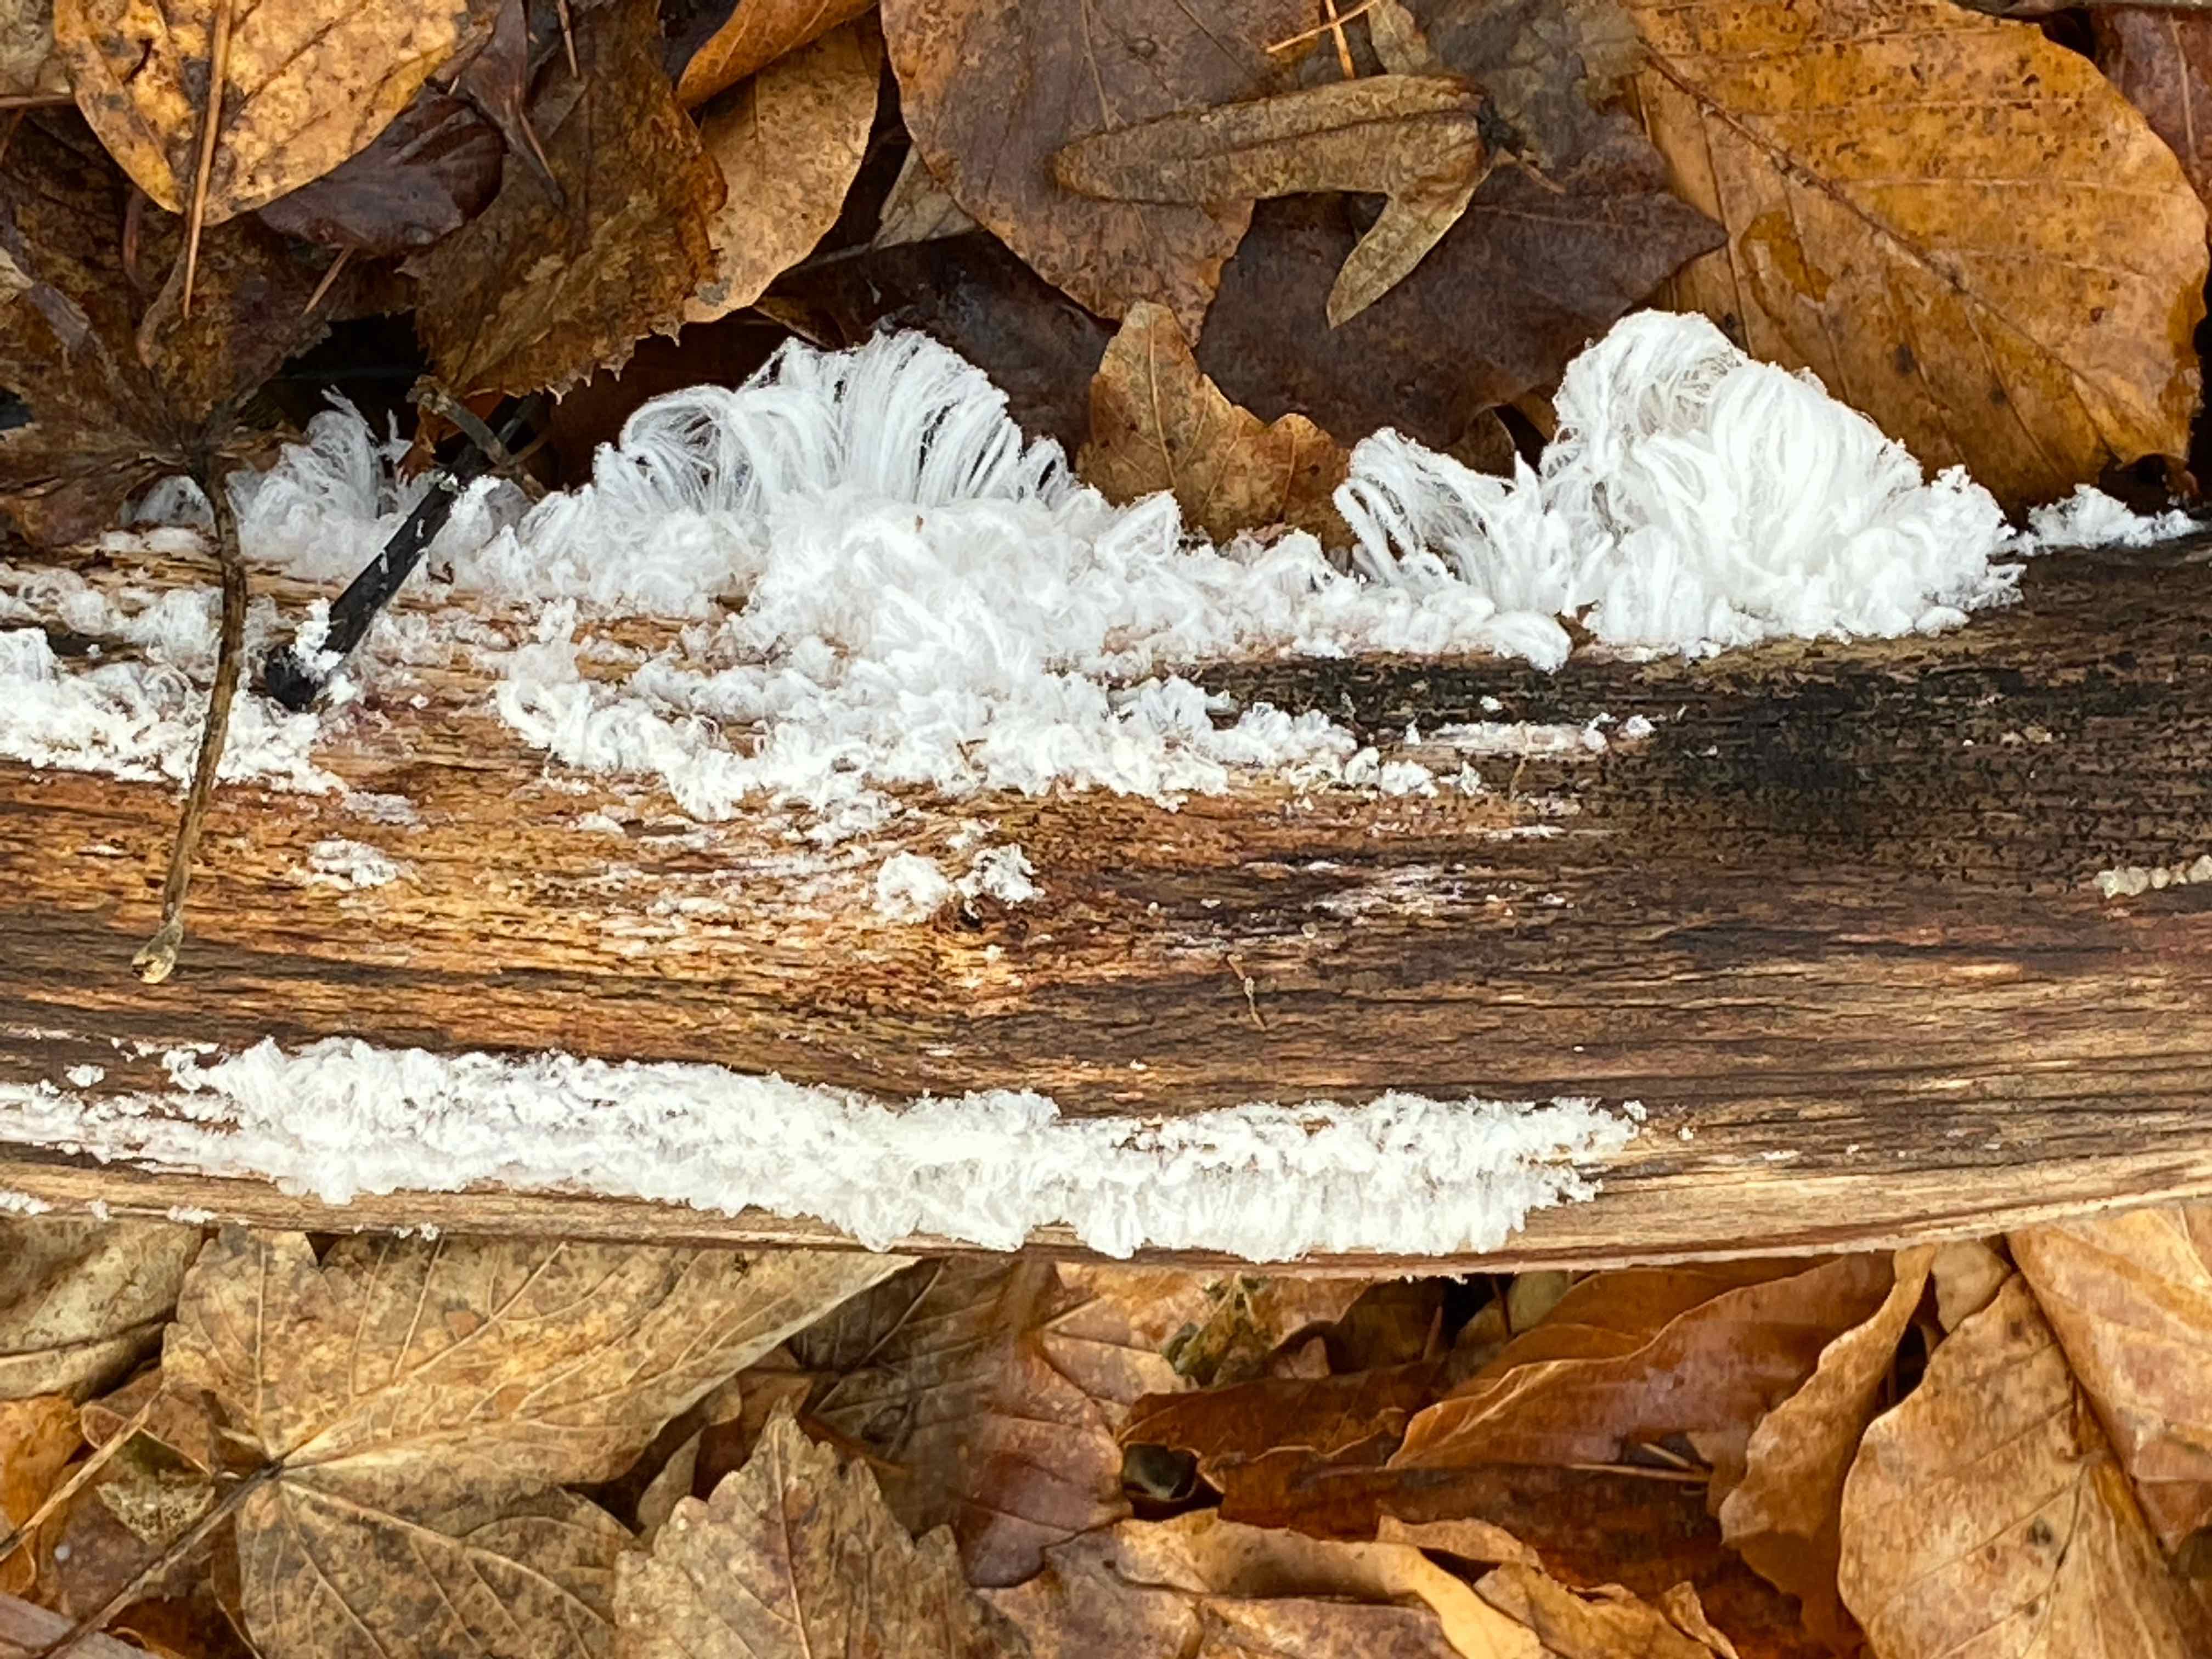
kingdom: Fungi
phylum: Basidiomycota
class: Tremellomycetes
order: Tremellales
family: Exidiaceae
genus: Exidiopsis
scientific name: Exidiopsis effusa
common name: smuk bævrehinde
